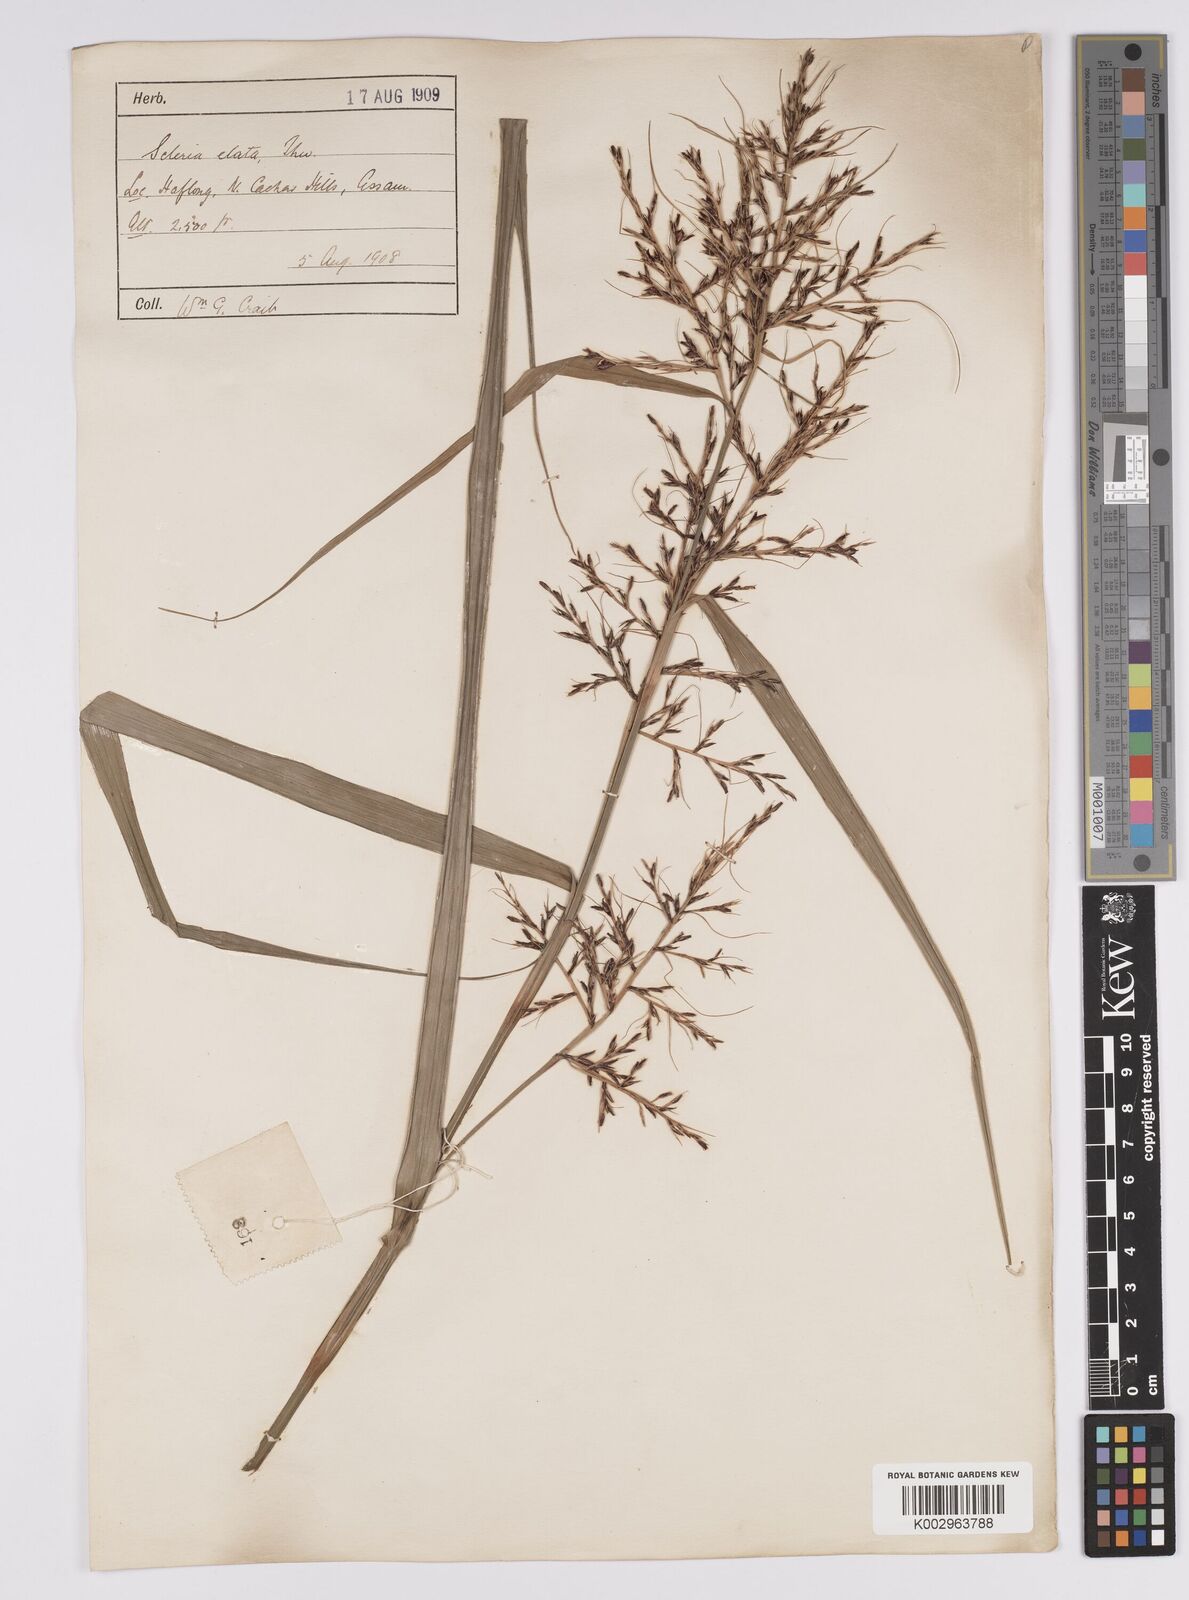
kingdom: Plantae
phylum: Tracheophyta
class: Liliopsida
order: Poales
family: Cyperaceae
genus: Scleria
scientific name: Scleria terrestris
